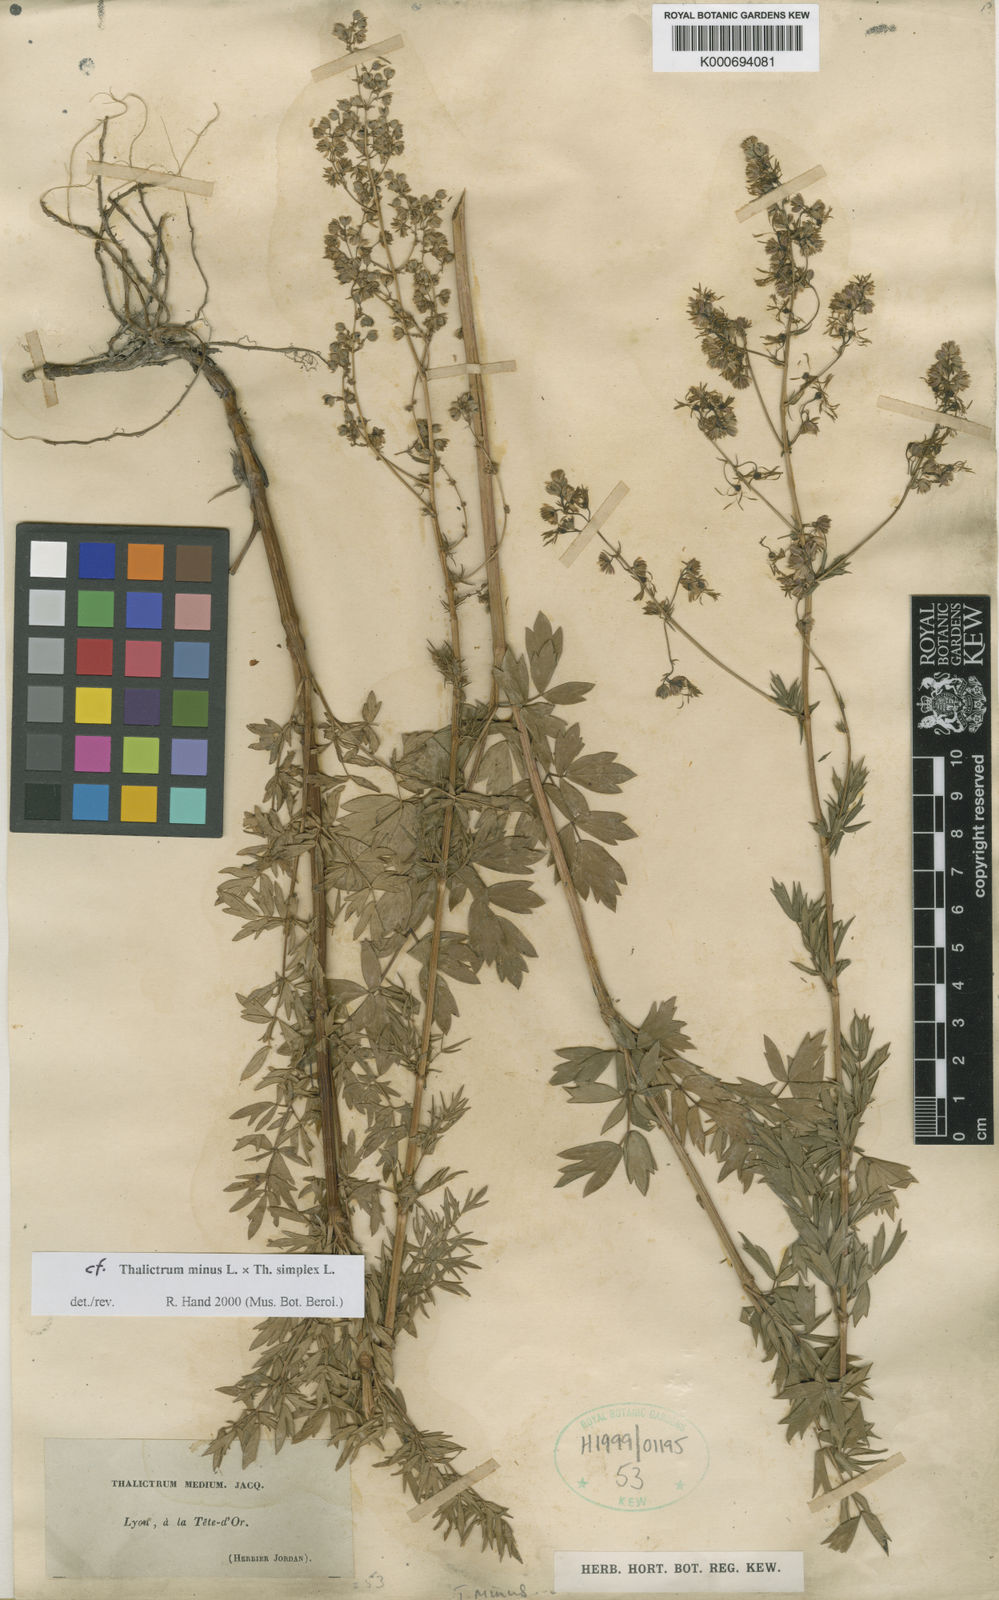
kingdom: Plantae
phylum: Tracheophyta
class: Magnoliopsida
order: Ranunculales
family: Ranunculaceae
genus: Thalictrum
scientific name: Thalictrum minus
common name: Lesser meadow-rue
